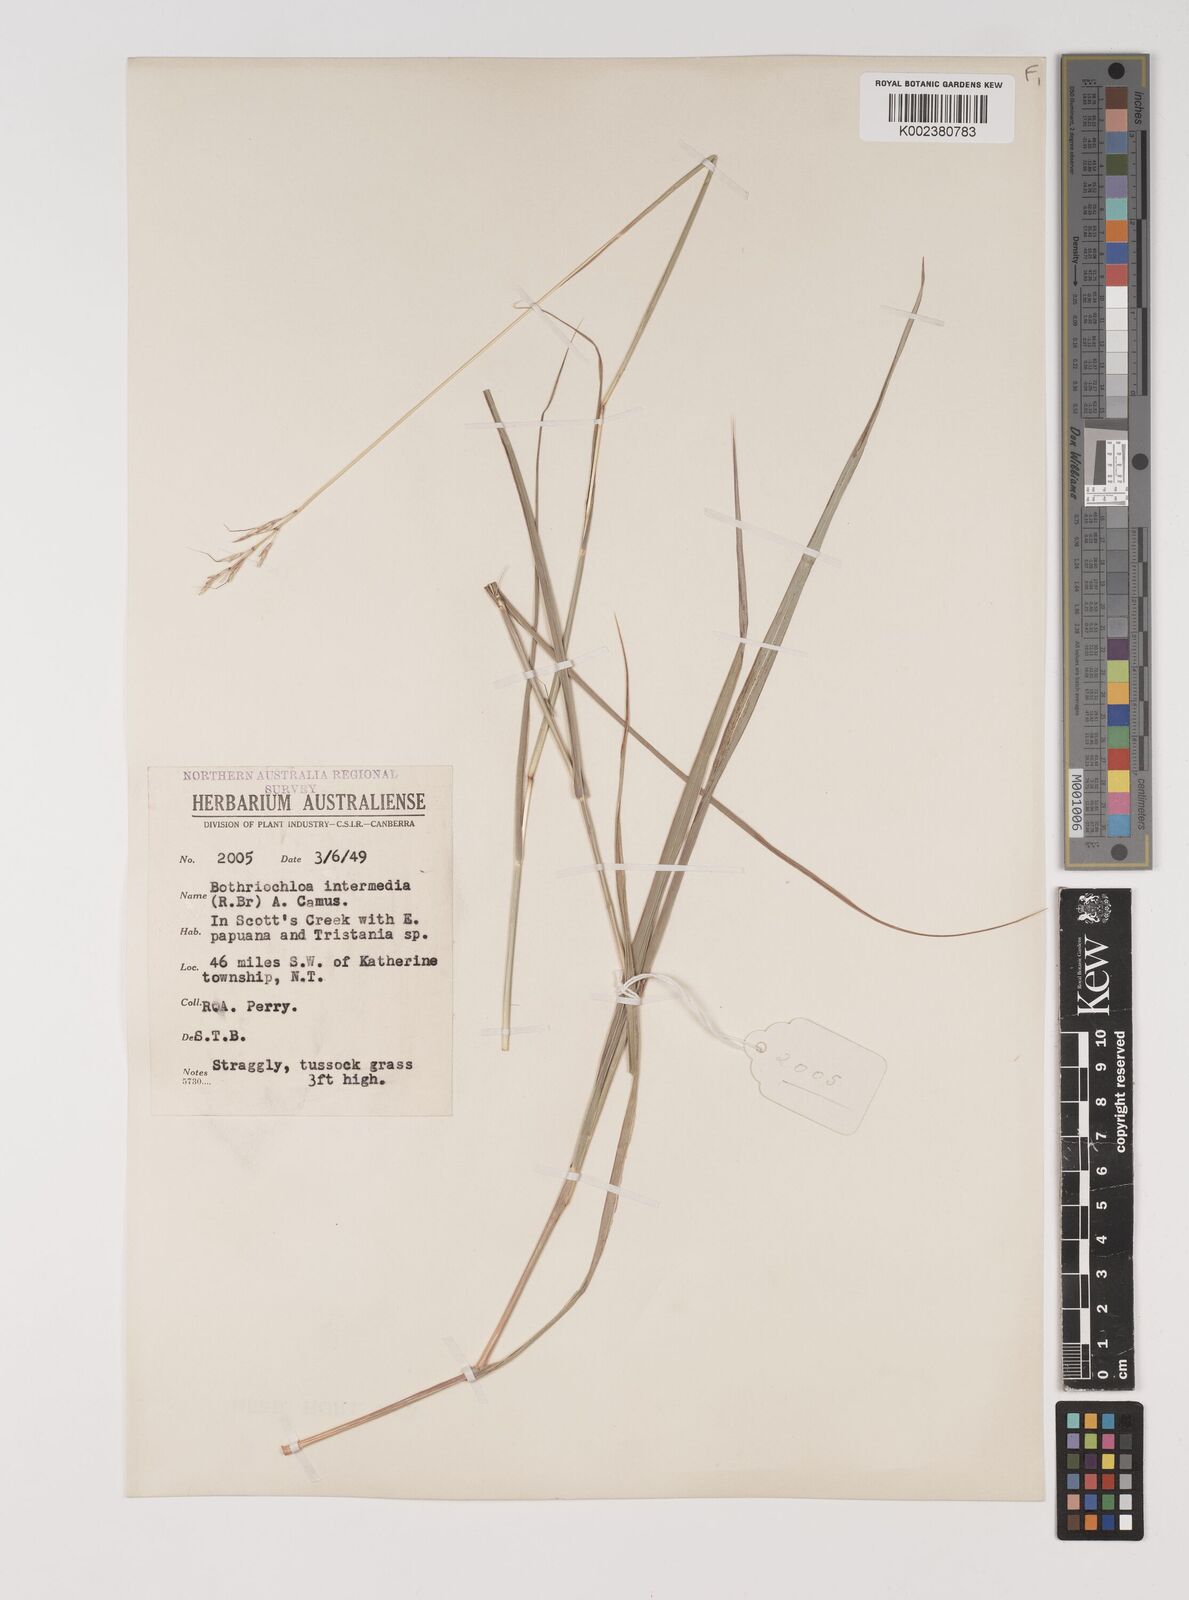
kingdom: Plantae
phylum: Tracheophyta
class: Liliopsida
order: Poales
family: Poaceae
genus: Bothriochloa
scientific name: Bothriochloa bladhii
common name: Caucasian bluestem
